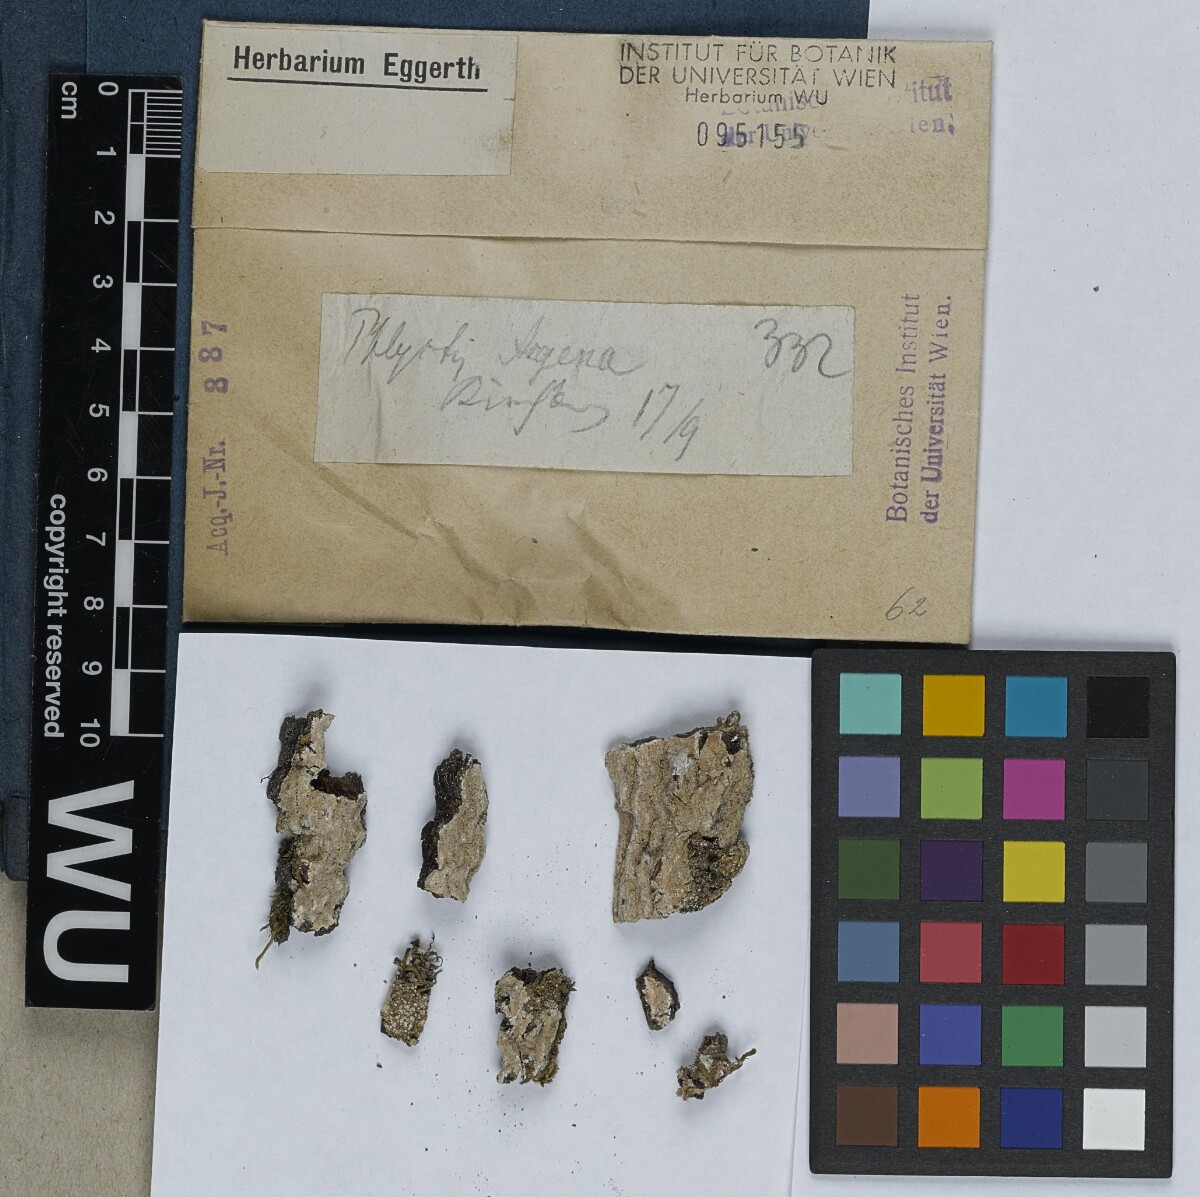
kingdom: Fungi
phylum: Ascomycota
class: Lecanoromycetes
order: Ostropales
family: Phlyctidaceae
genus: Phlyctis
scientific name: Phlyctis argena
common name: Whitewash lichen
